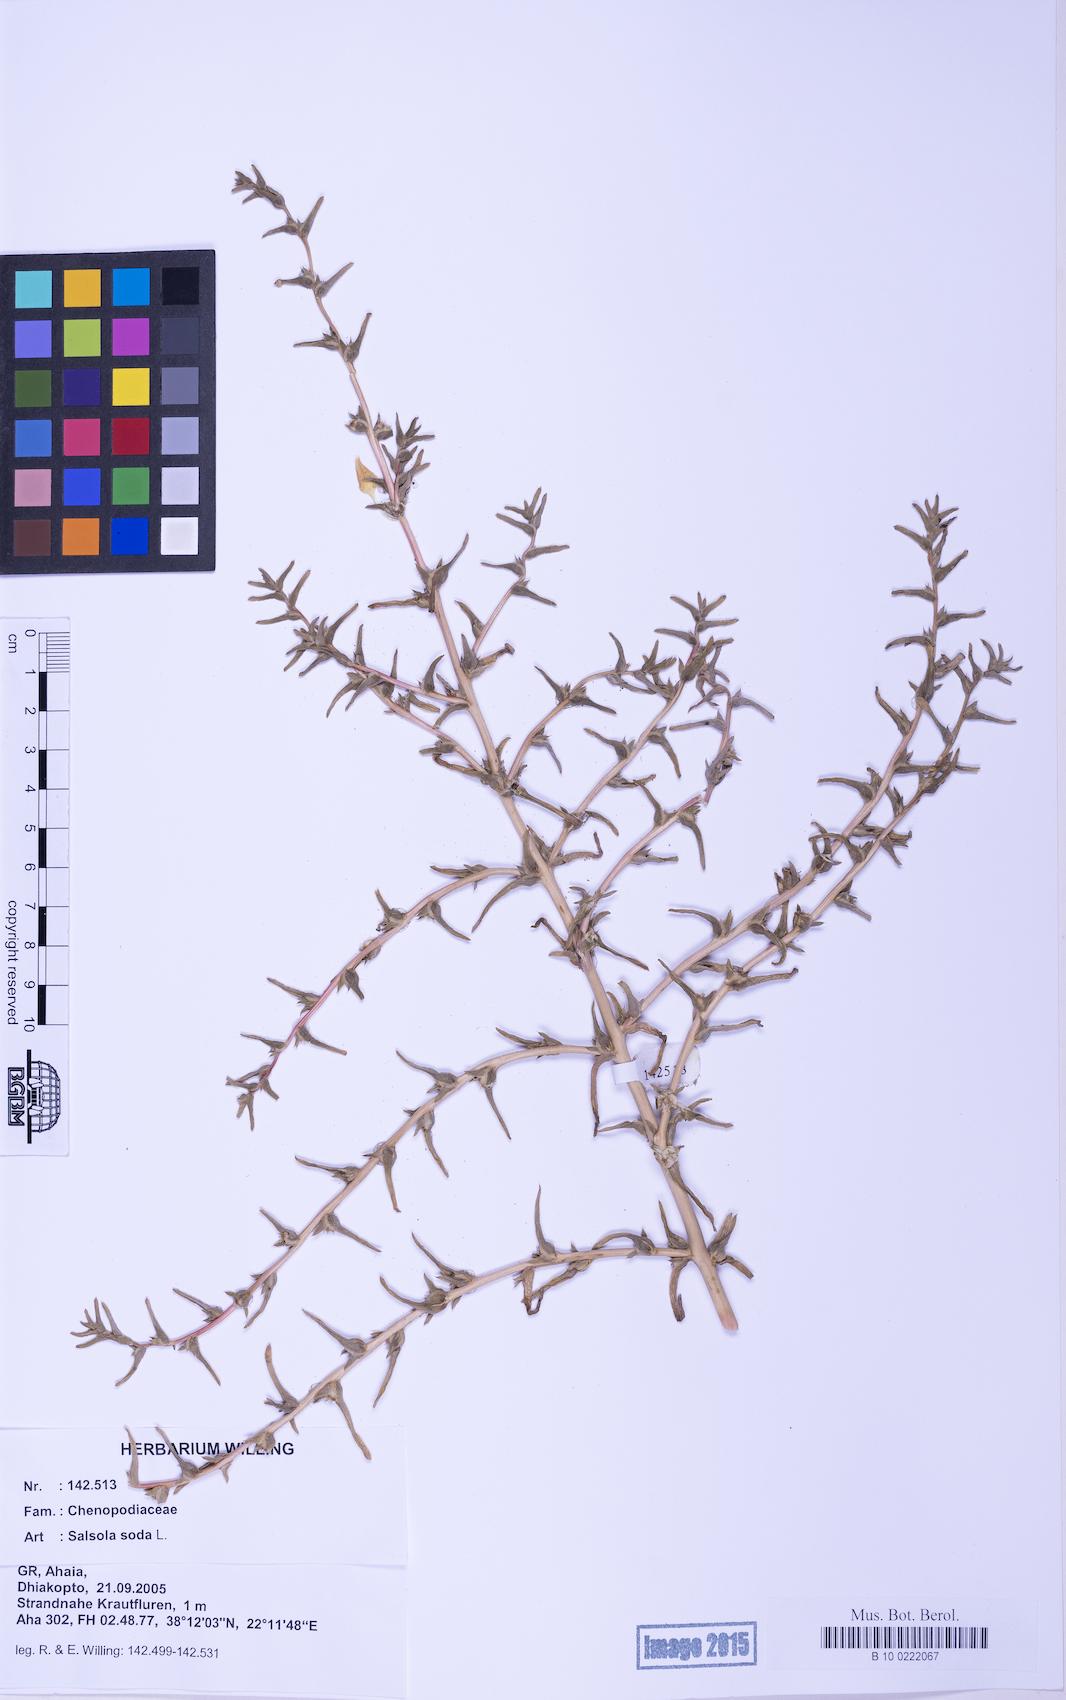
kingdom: Plantae
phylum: Tracheophyta
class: Magnoliopsida
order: Caryophyllales
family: Amaranthaceae
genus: Soda
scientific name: Soda inermis
